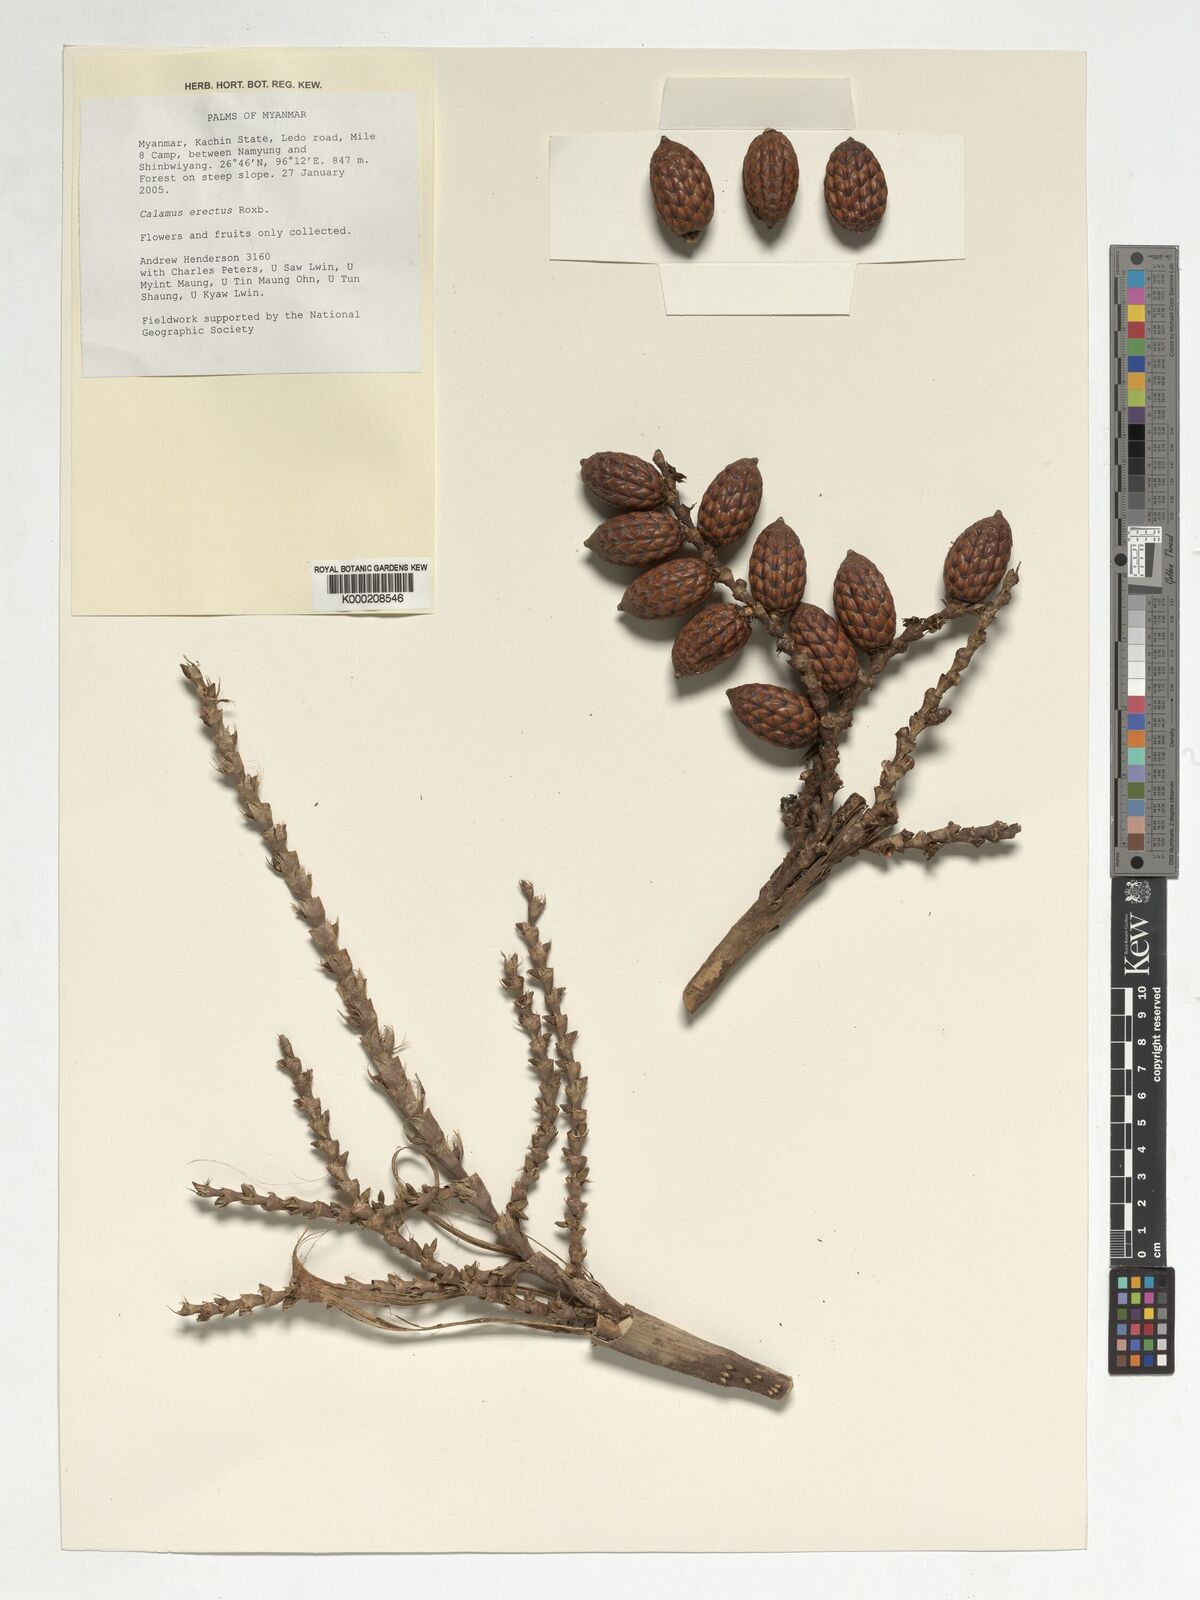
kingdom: Plantae
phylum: Tracheophyta
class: Liliopsida
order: Arecales
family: Arecaceae
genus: Calamus
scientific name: Calamus erectus
